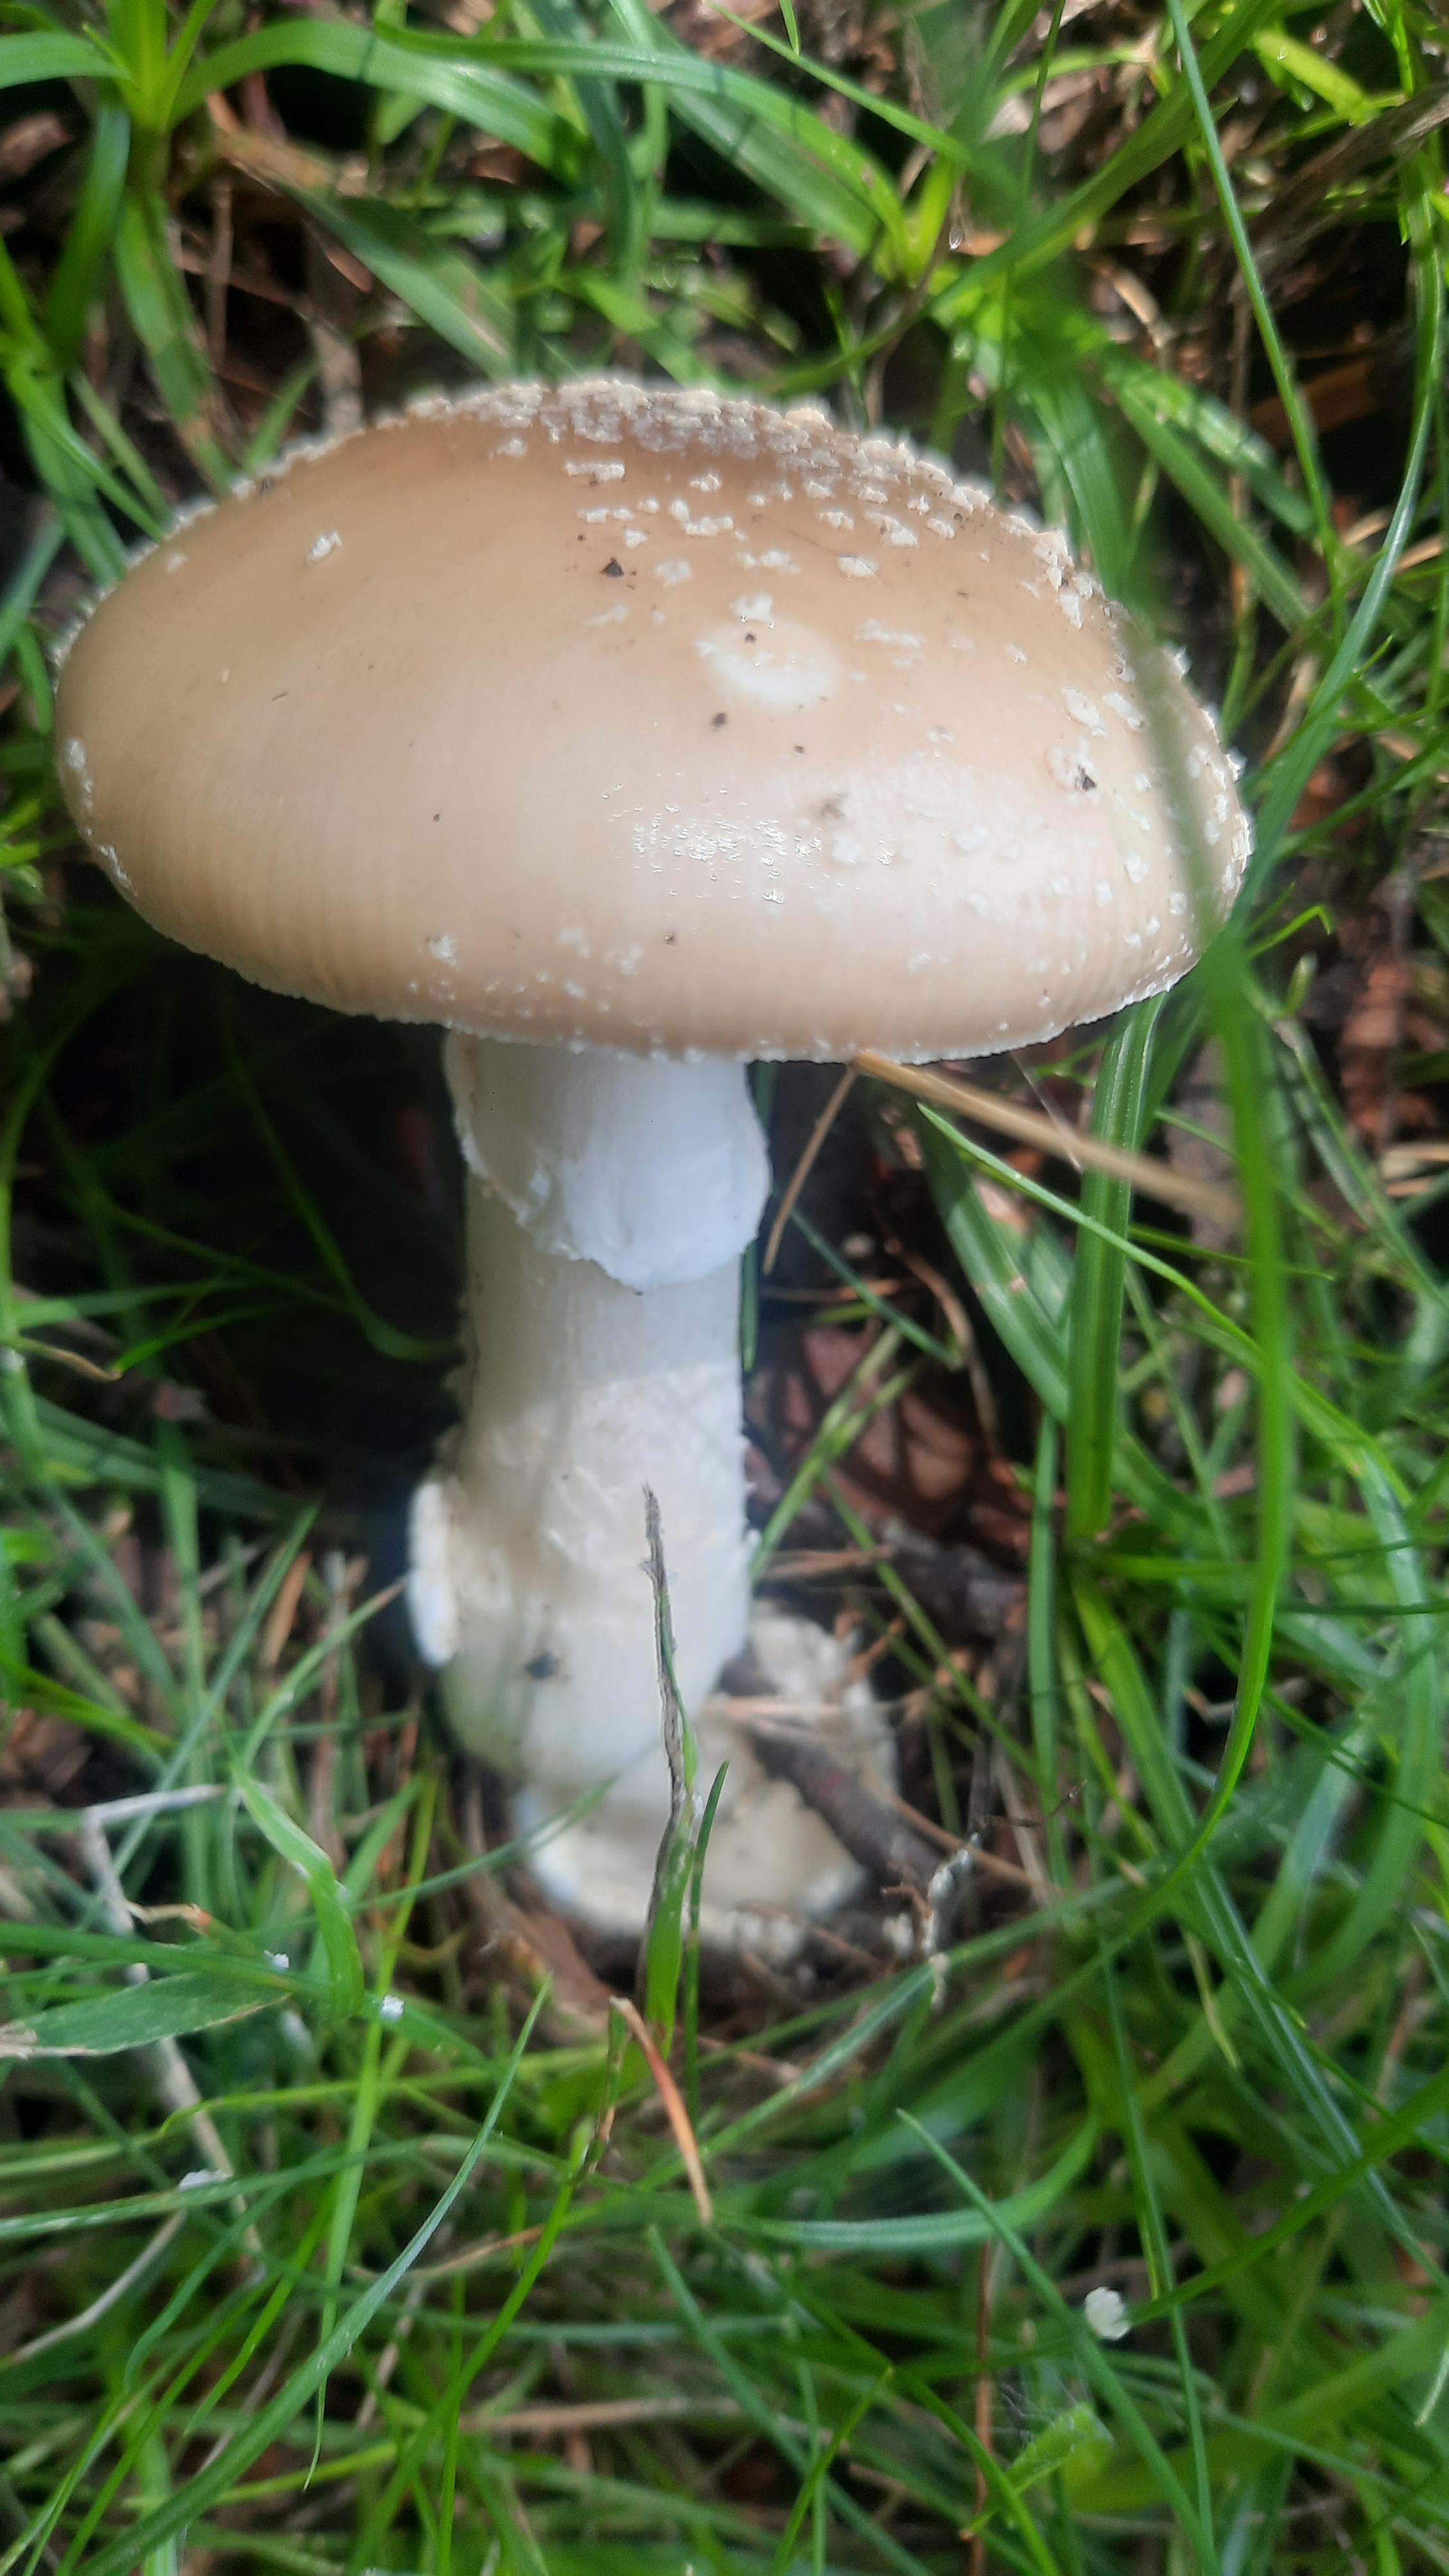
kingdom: Fungi
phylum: Basidiomycota
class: Agaricomycetes
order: Agaricales
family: Amanitaceae
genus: Amanita
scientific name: Amanita pantherina
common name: panter-fluesvamp
